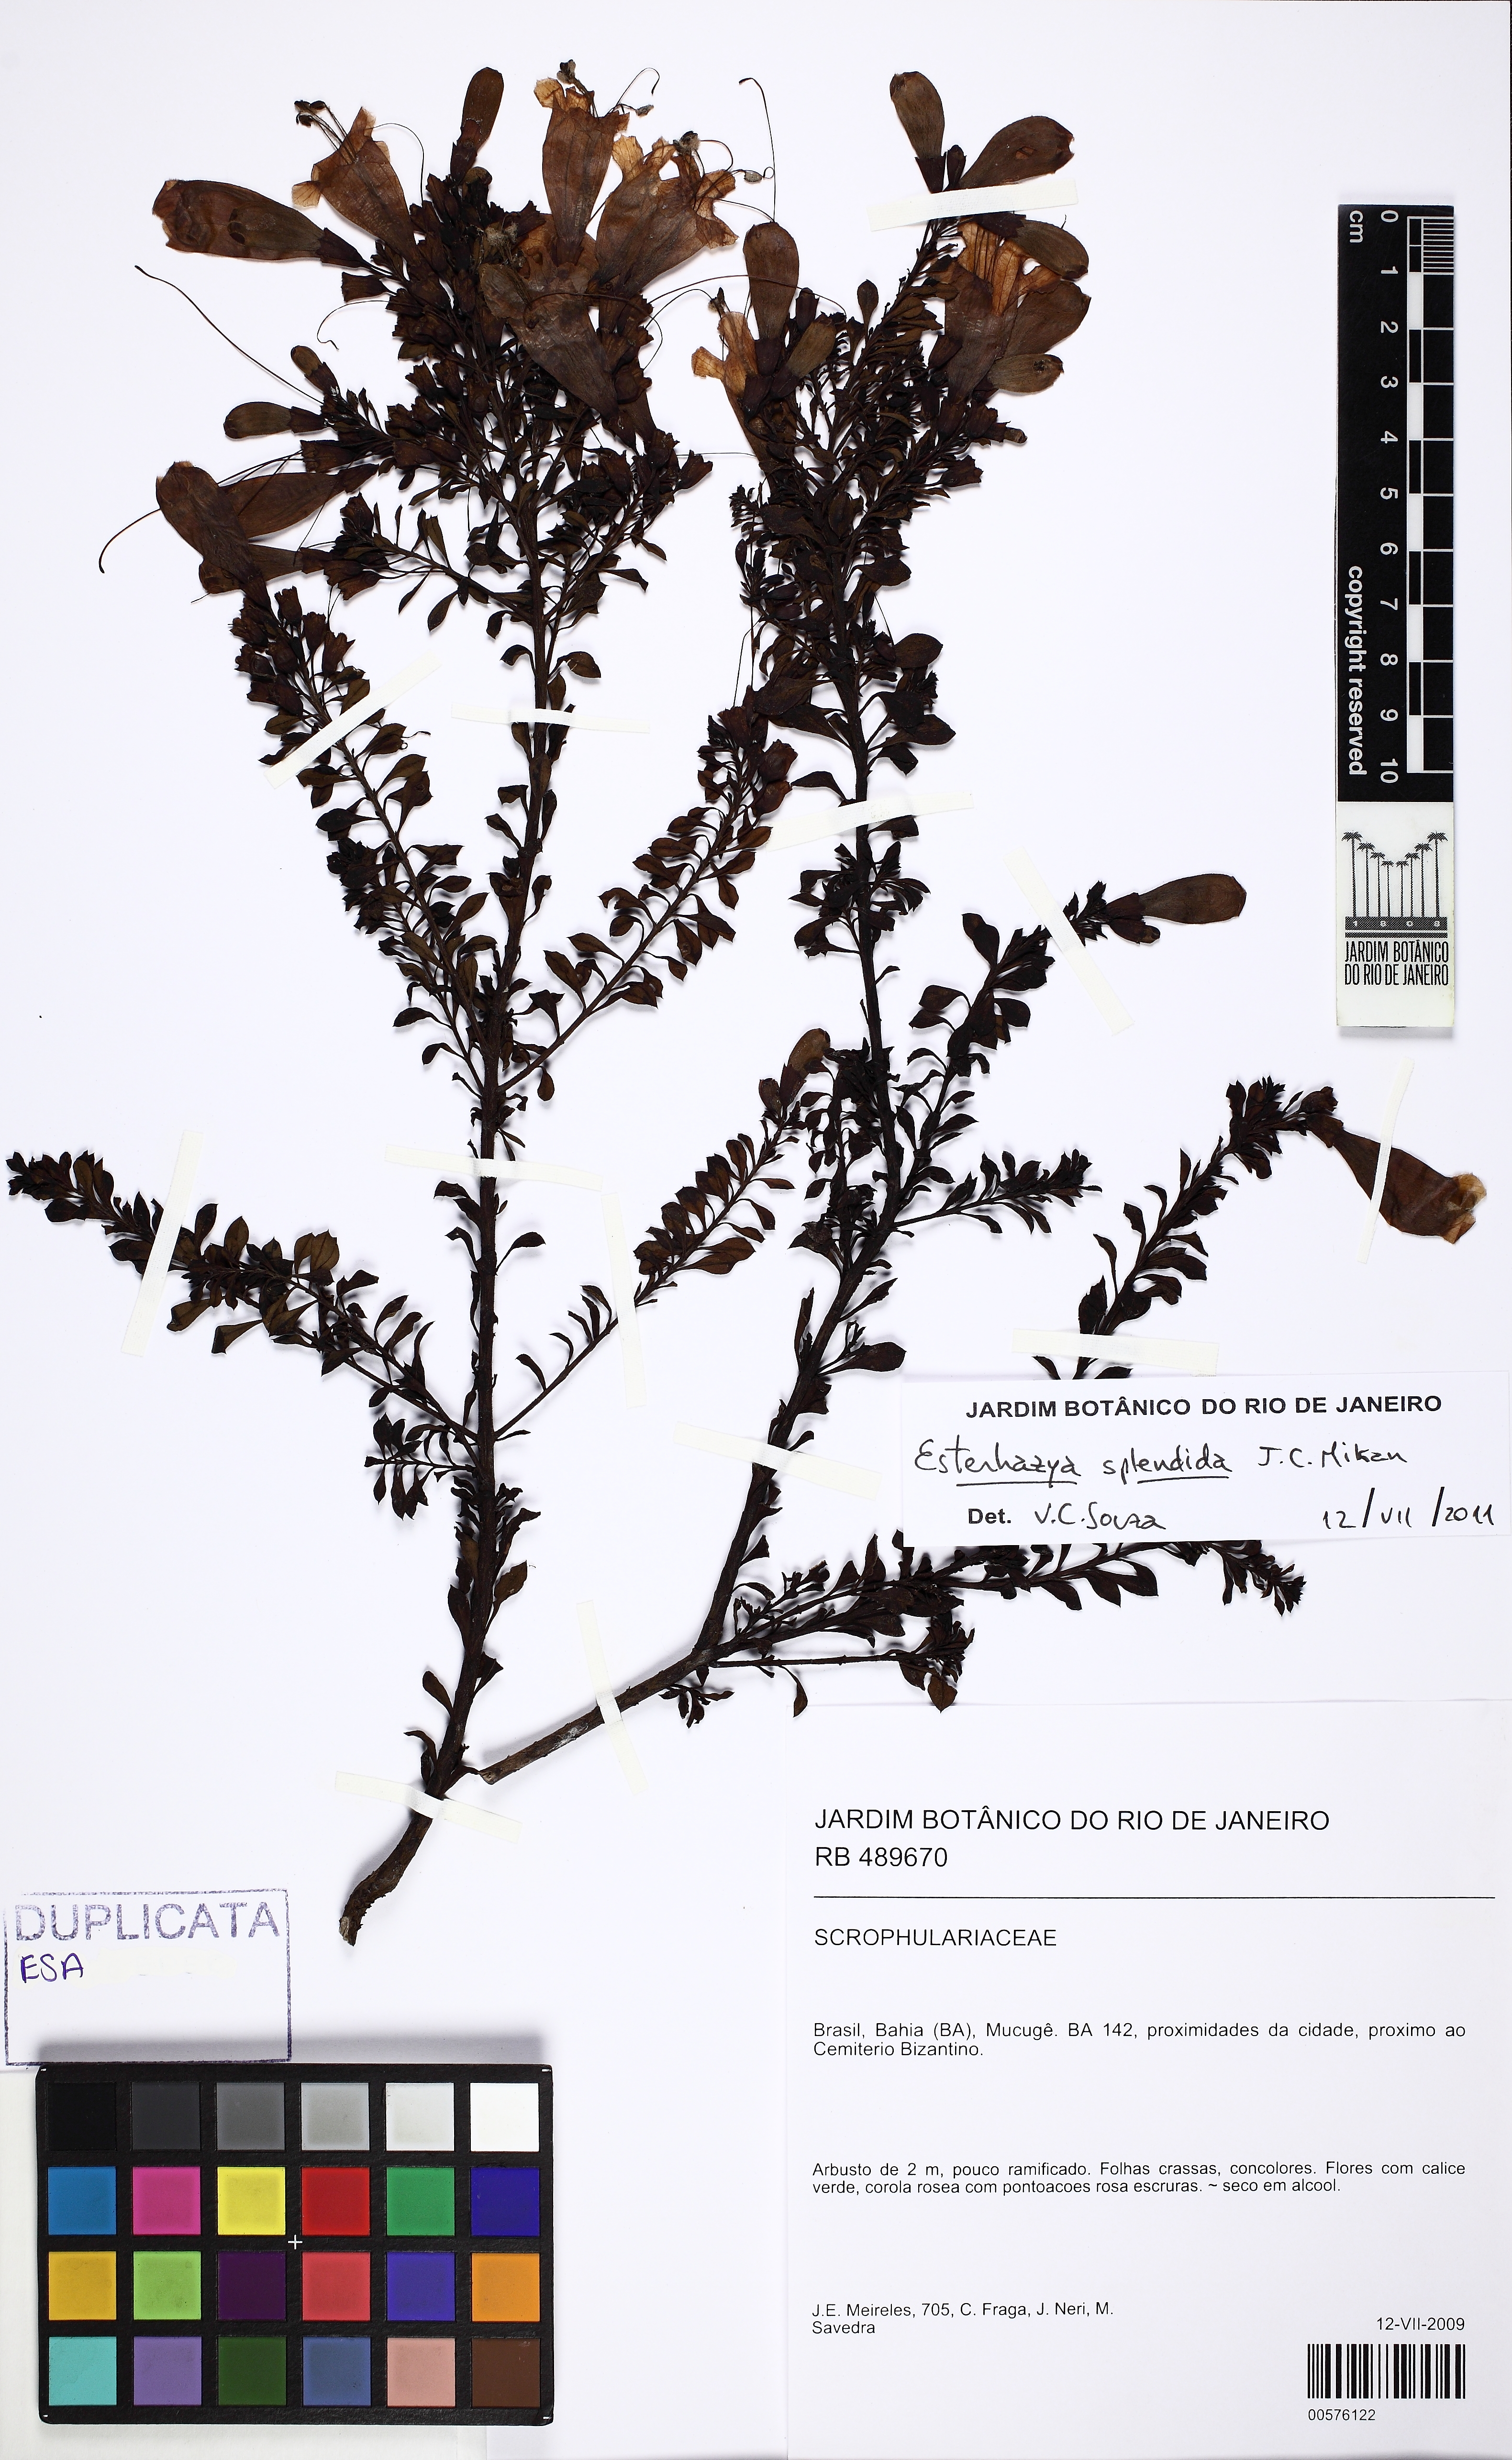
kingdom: Plantae
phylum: Tracheophyta
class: Magnoliopsida
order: Lamiales
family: Orobanchaceae
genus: Esterhazya
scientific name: Esterhazya splendida
